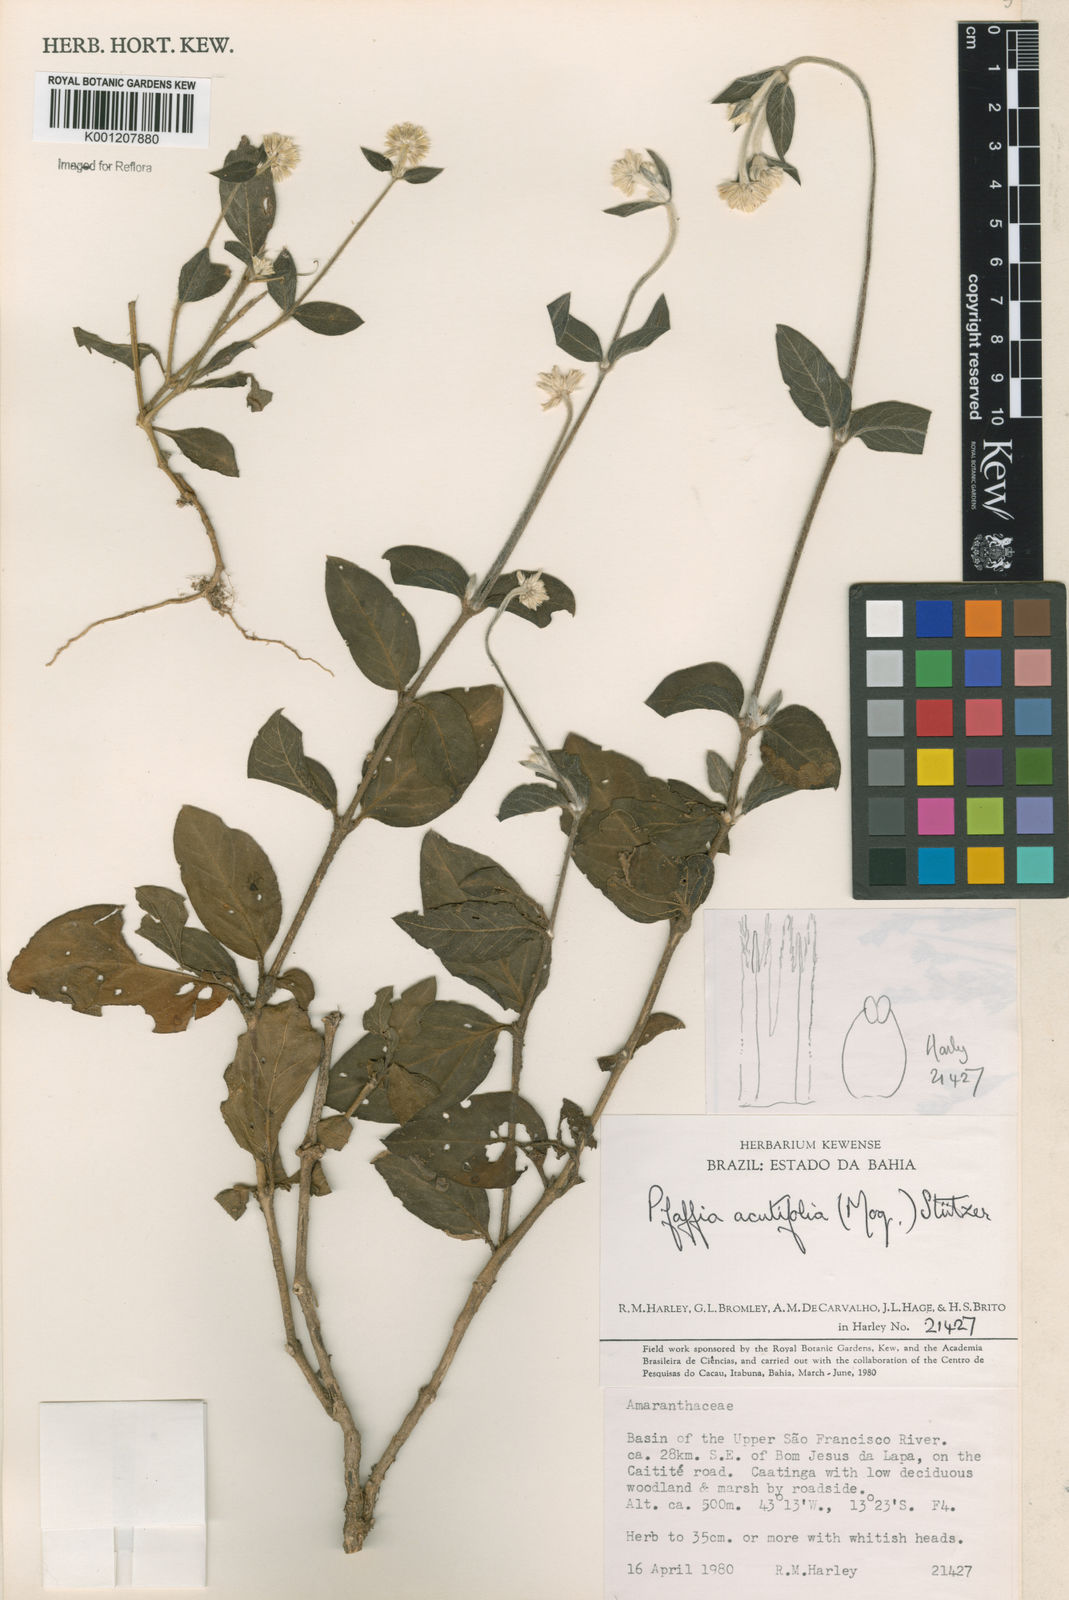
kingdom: Plantae
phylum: Tracheophyta
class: Magnoliopsida
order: Caryophyllales
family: Amaranthaceae
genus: Pfaffia
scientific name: Pfaffia
